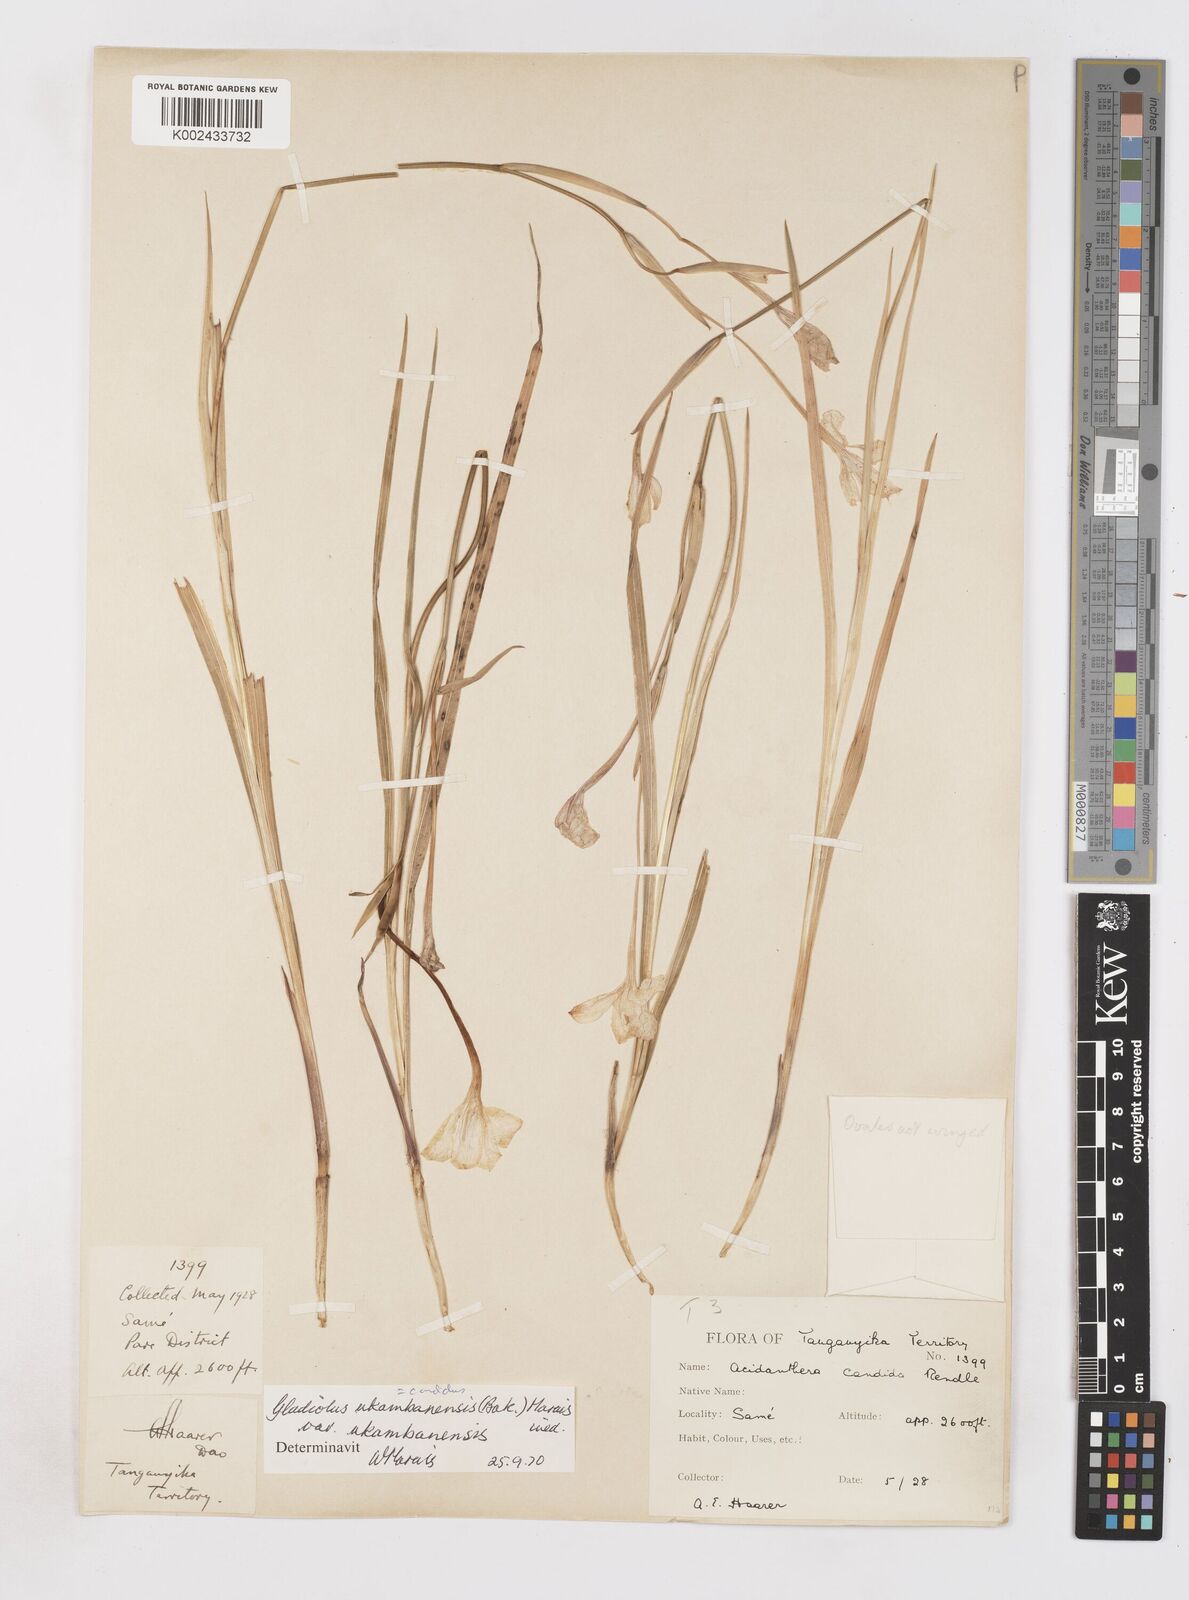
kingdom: Plantae
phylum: Tracheophyta
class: Liliopsida
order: Asparagales
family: Iridaceae
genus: Gladiolus
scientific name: Gladiolus candidus
